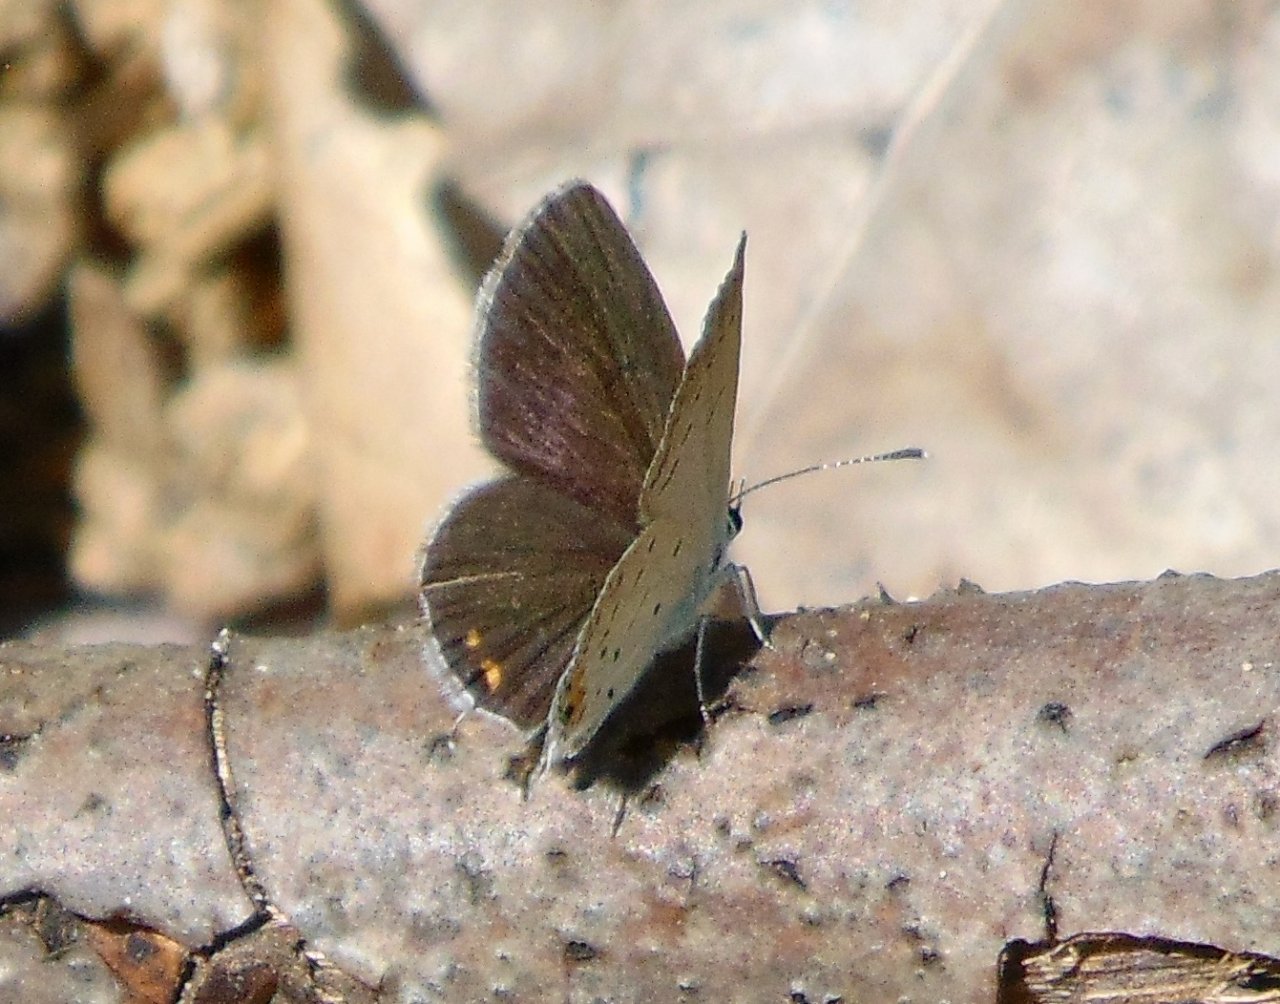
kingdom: Animalia
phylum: Arthropoda
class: Insecta
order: Lepidoptera
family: Lycaenidae
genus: Elkalyce
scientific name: Elkalyce comyntas
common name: Eastern Tailed-Blue
